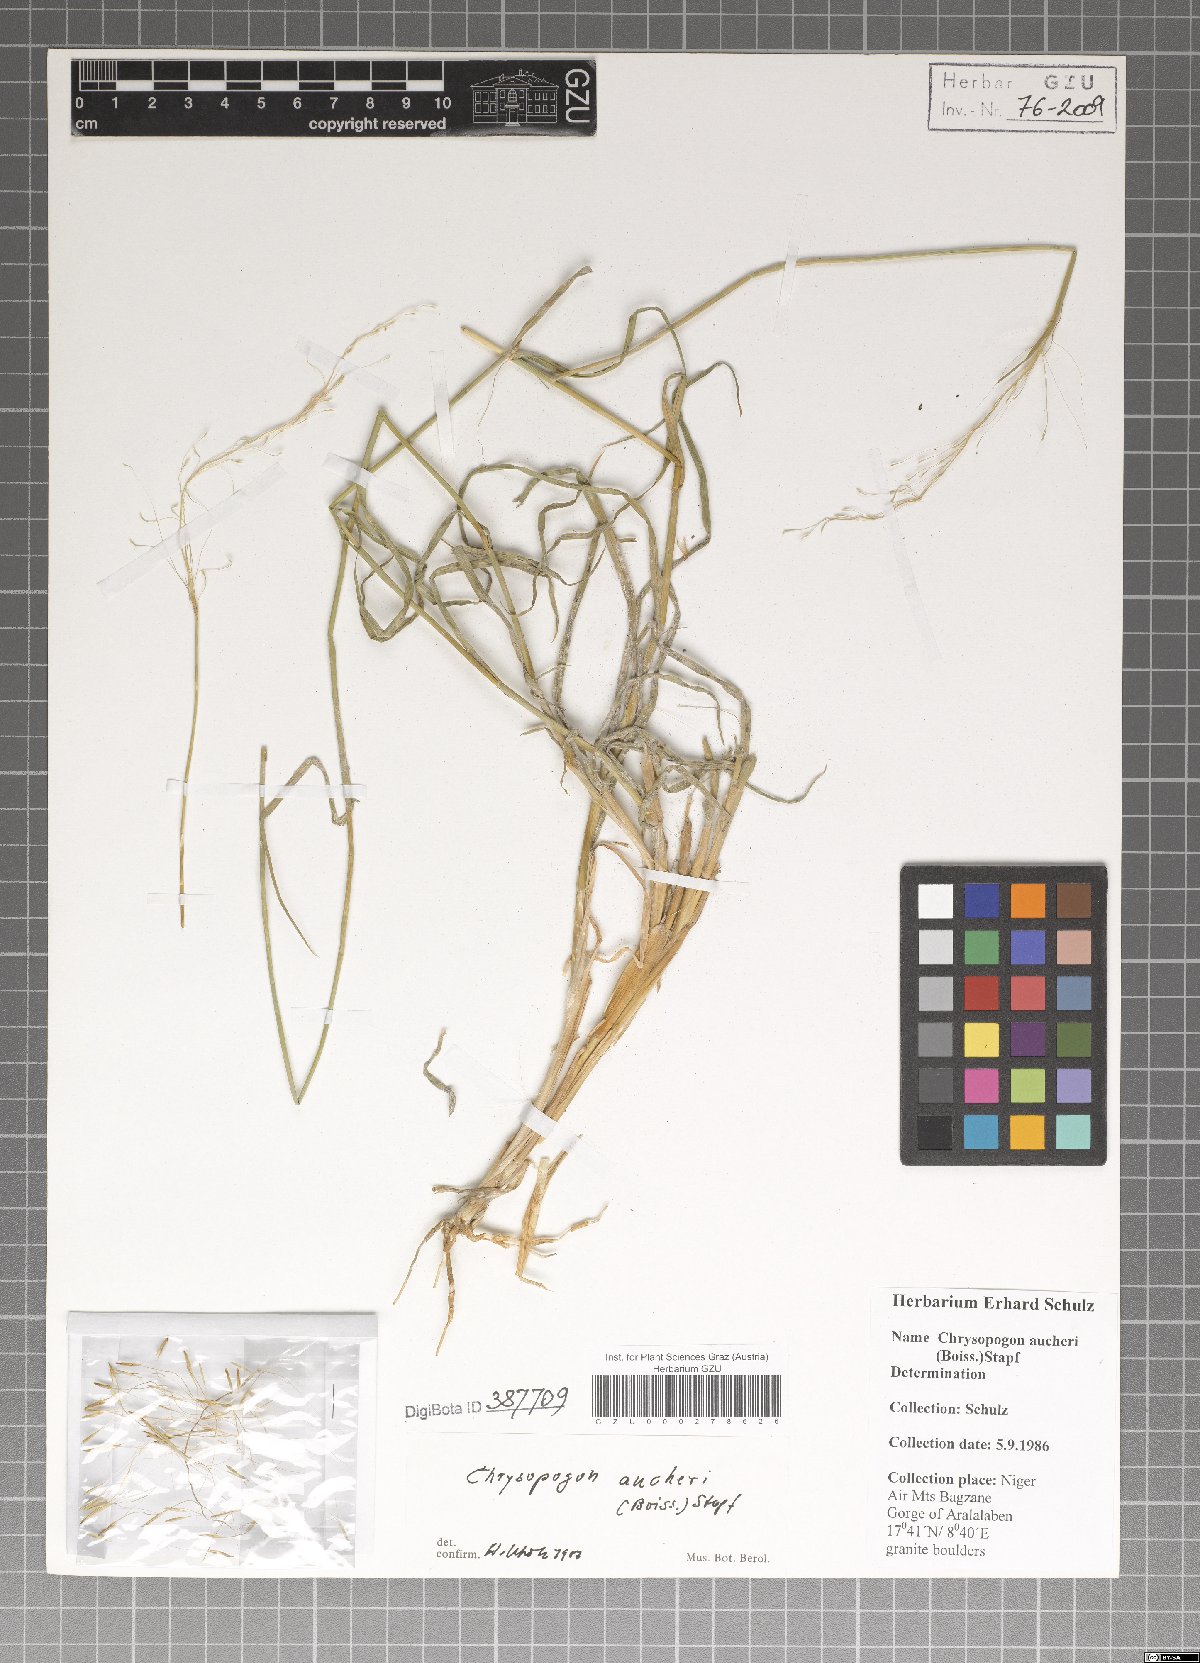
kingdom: Plantae
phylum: Tracheophyta
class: Liliopsida
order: Poales
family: Poaceae
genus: Chrysopogon
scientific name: Chrysopogon aucheri
